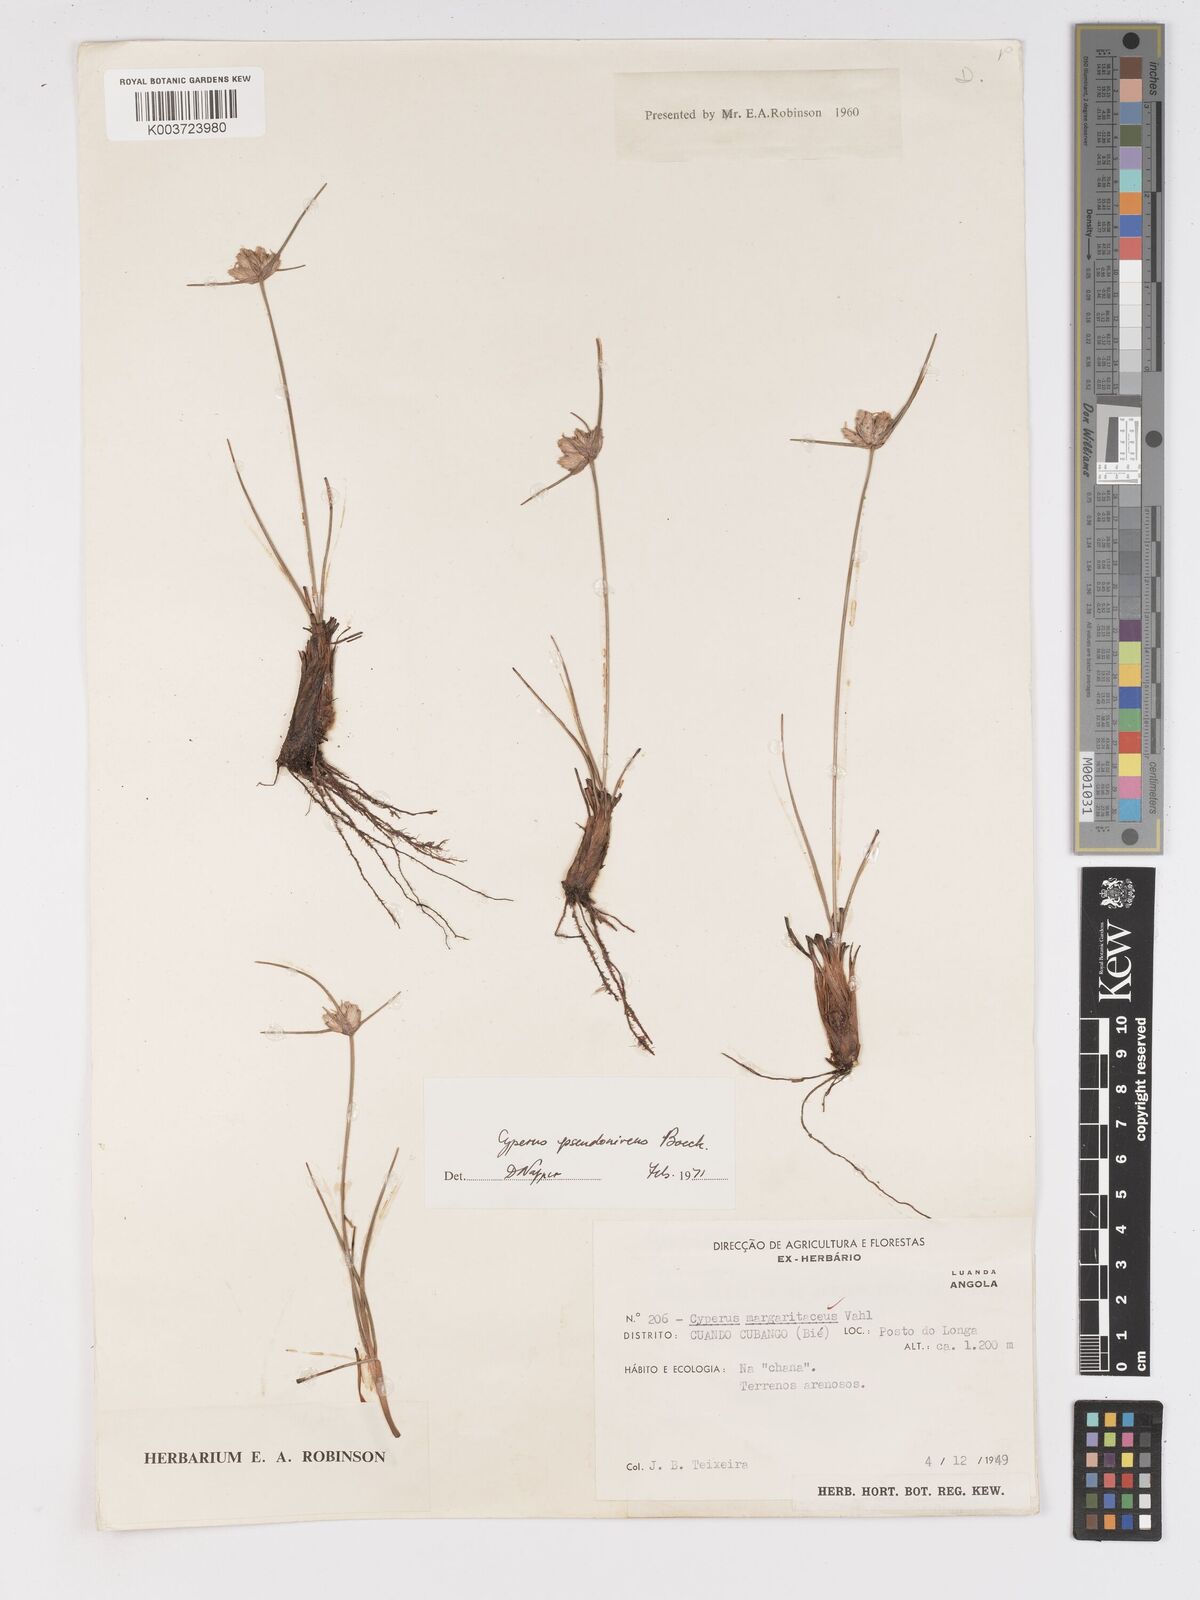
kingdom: Plantae
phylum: Tracheophyta
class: Liliopsida
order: Poales
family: Cyperaceae
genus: Cyperus
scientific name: Cyperus margaritaceus
